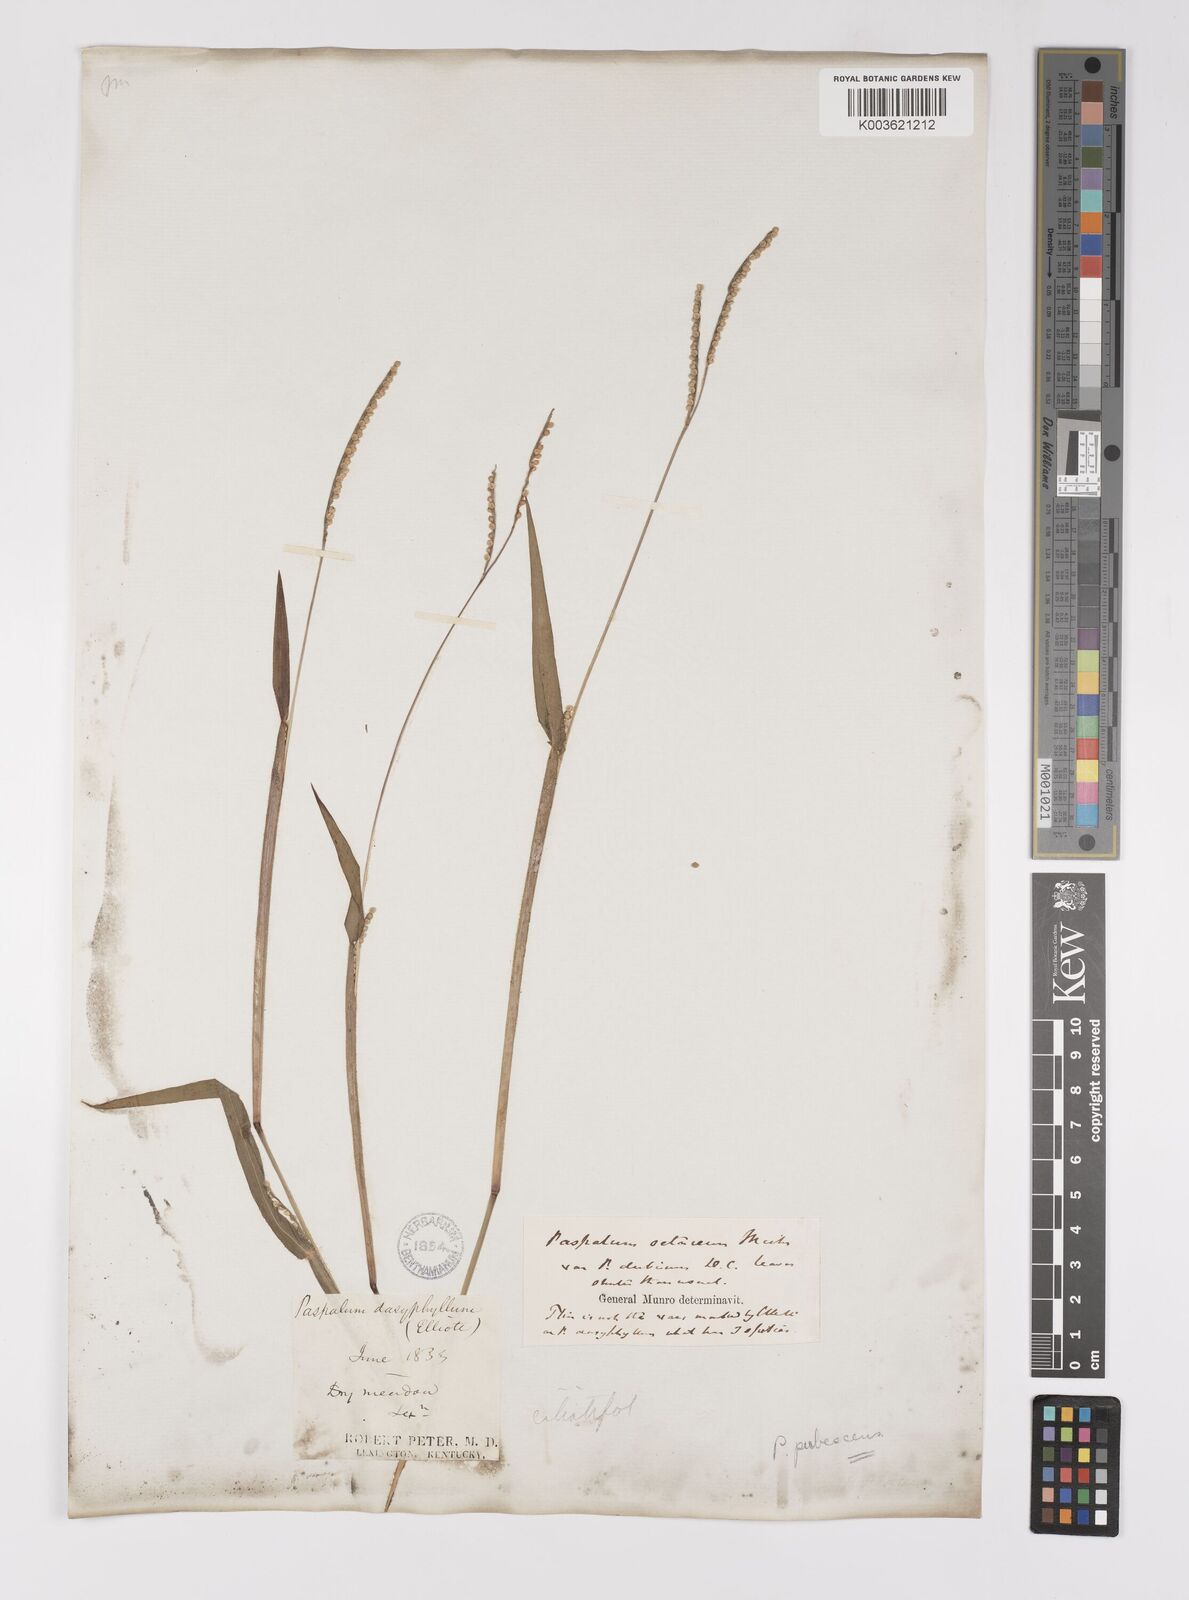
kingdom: Plantae
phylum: Tracheophyta
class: Liliopsida
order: Poales
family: Poaceae
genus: Paspalum
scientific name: Paspalum setaceum
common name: Slender paspalum
